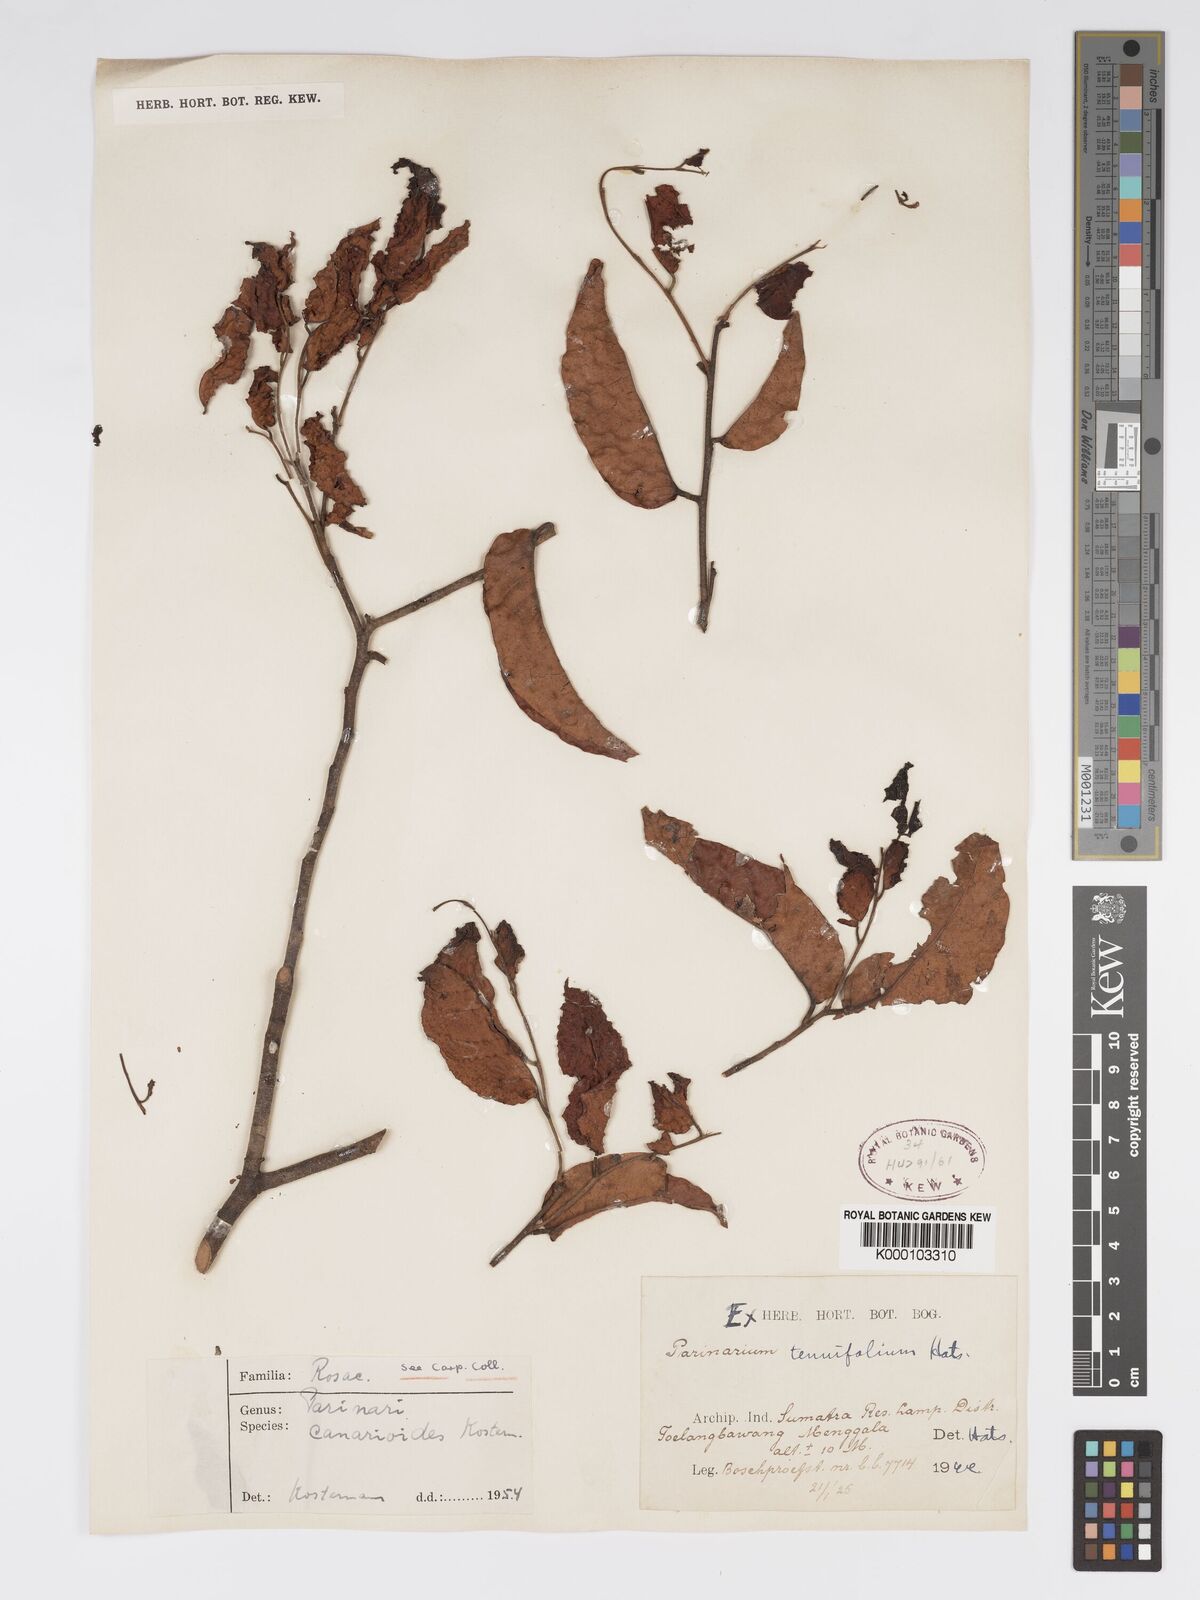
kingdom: Plantae
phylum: Tracheophyta
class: Magnoliopsida
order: Malpighiales
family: Chrysobalanaceae
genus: Parinari
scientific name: Parinari canarioides
